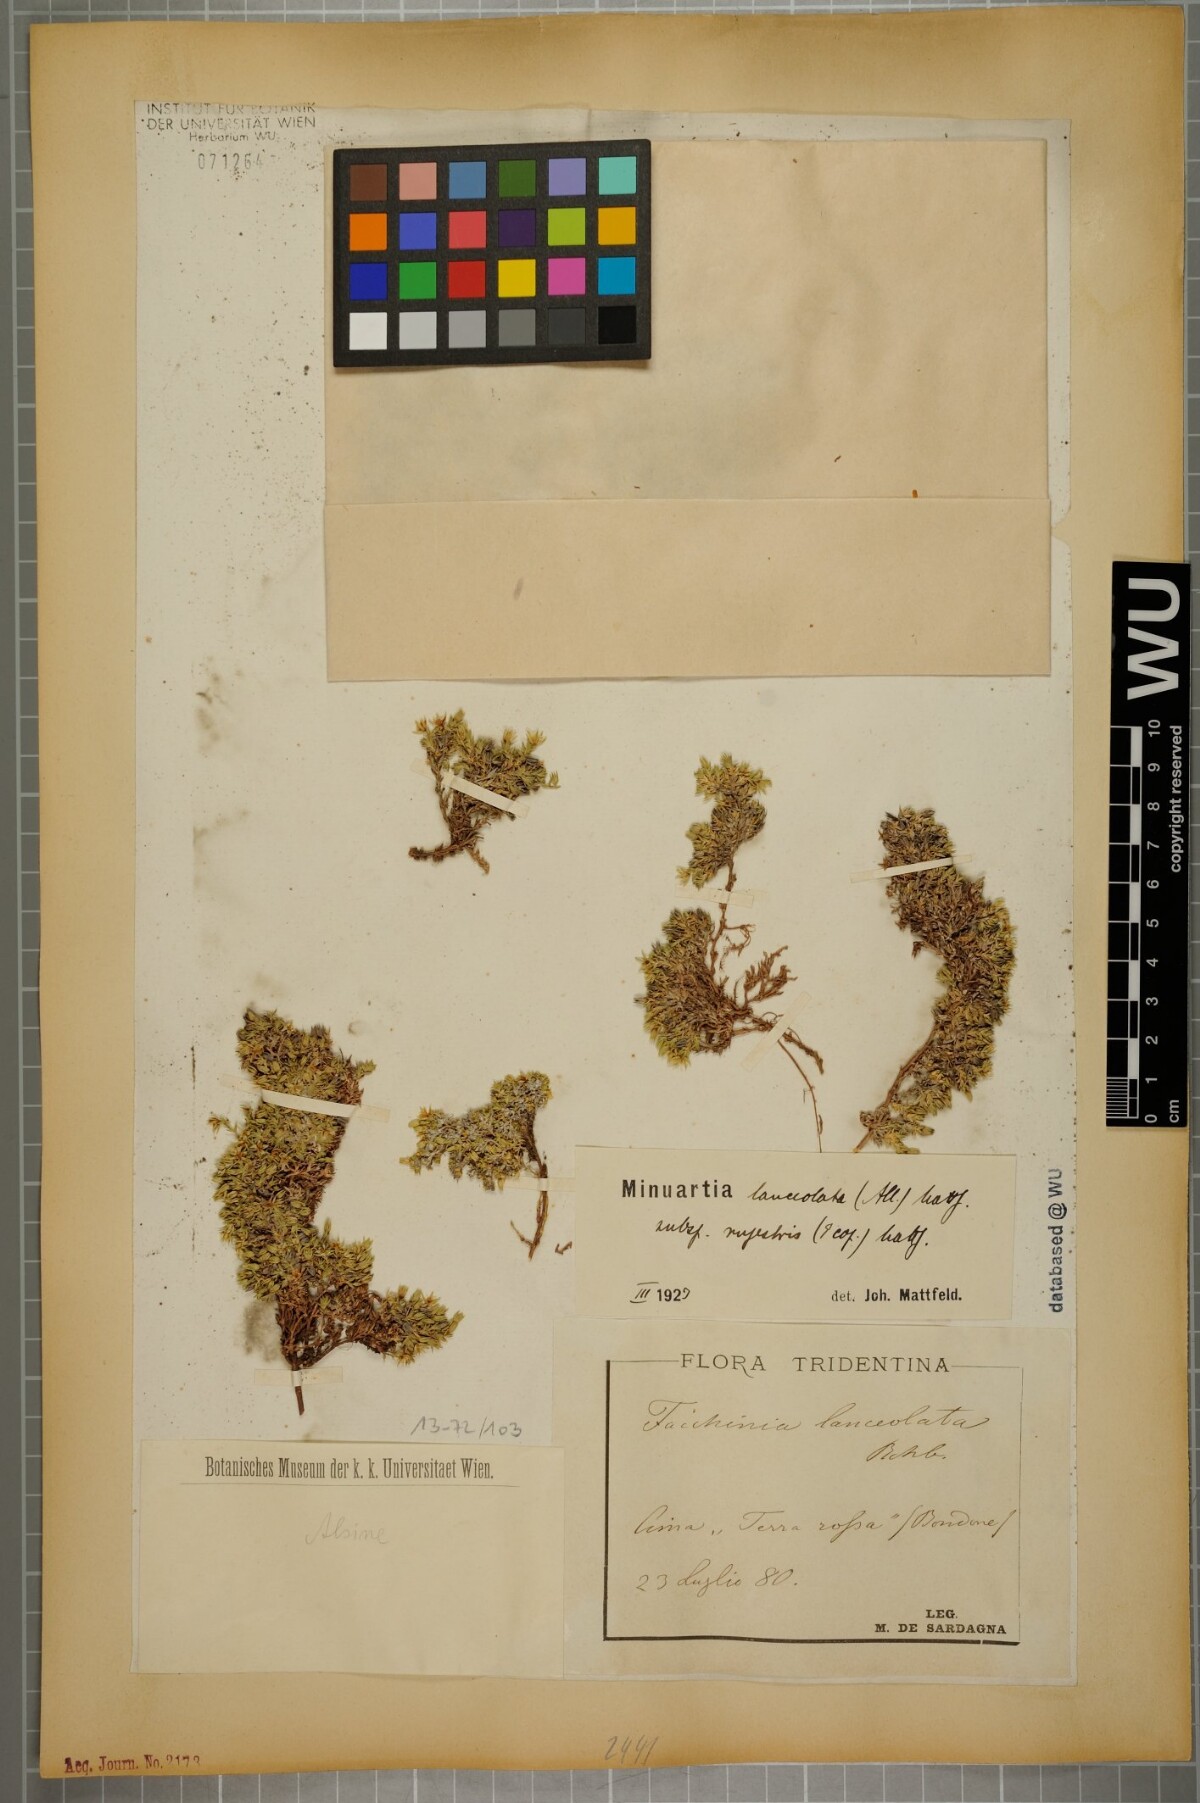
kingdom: Plantae
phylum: Tracheophyta
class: Magnoliopsida
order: Caryophyllales
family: Caryophyllaceae
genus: Facchinia
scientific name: Facchinia rupestris
